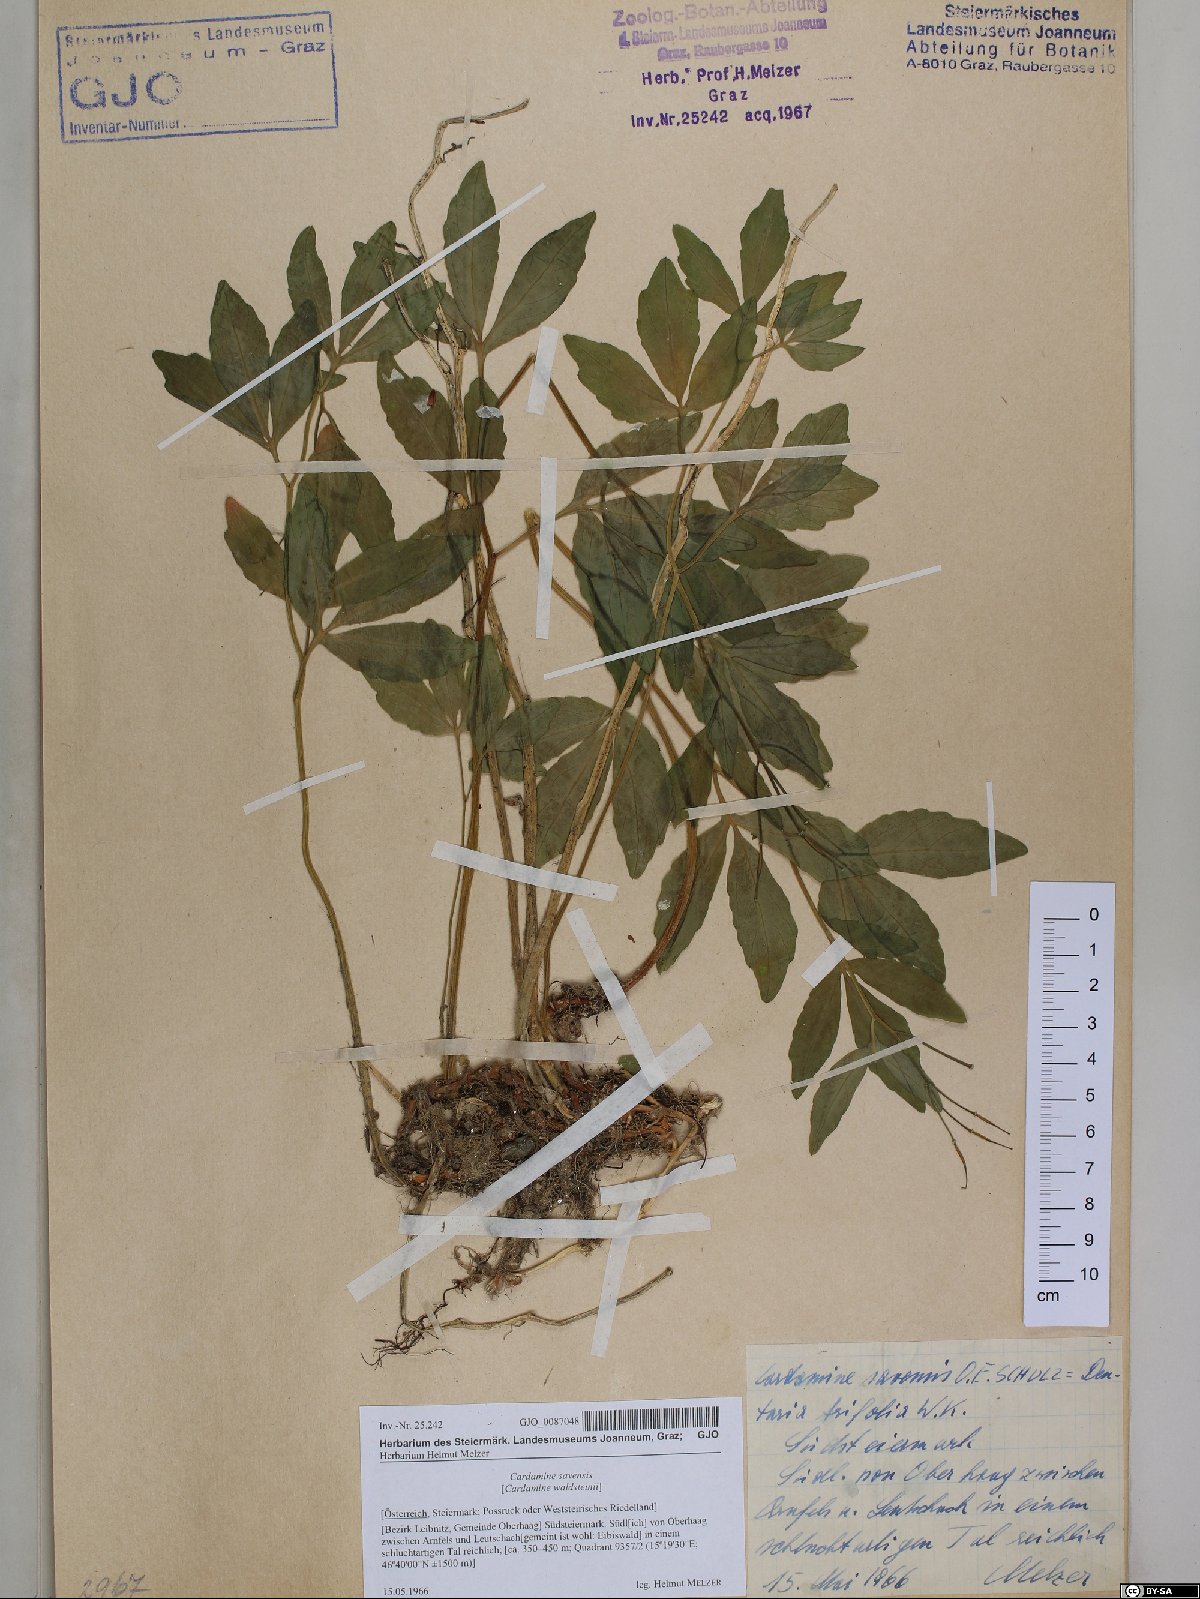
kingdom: Plantae
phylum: Tracheophyta
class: Magnoliopsida
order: Brassicales
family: Brassicaceae
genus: Cardamine
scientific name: Cardamine waldsteinii
